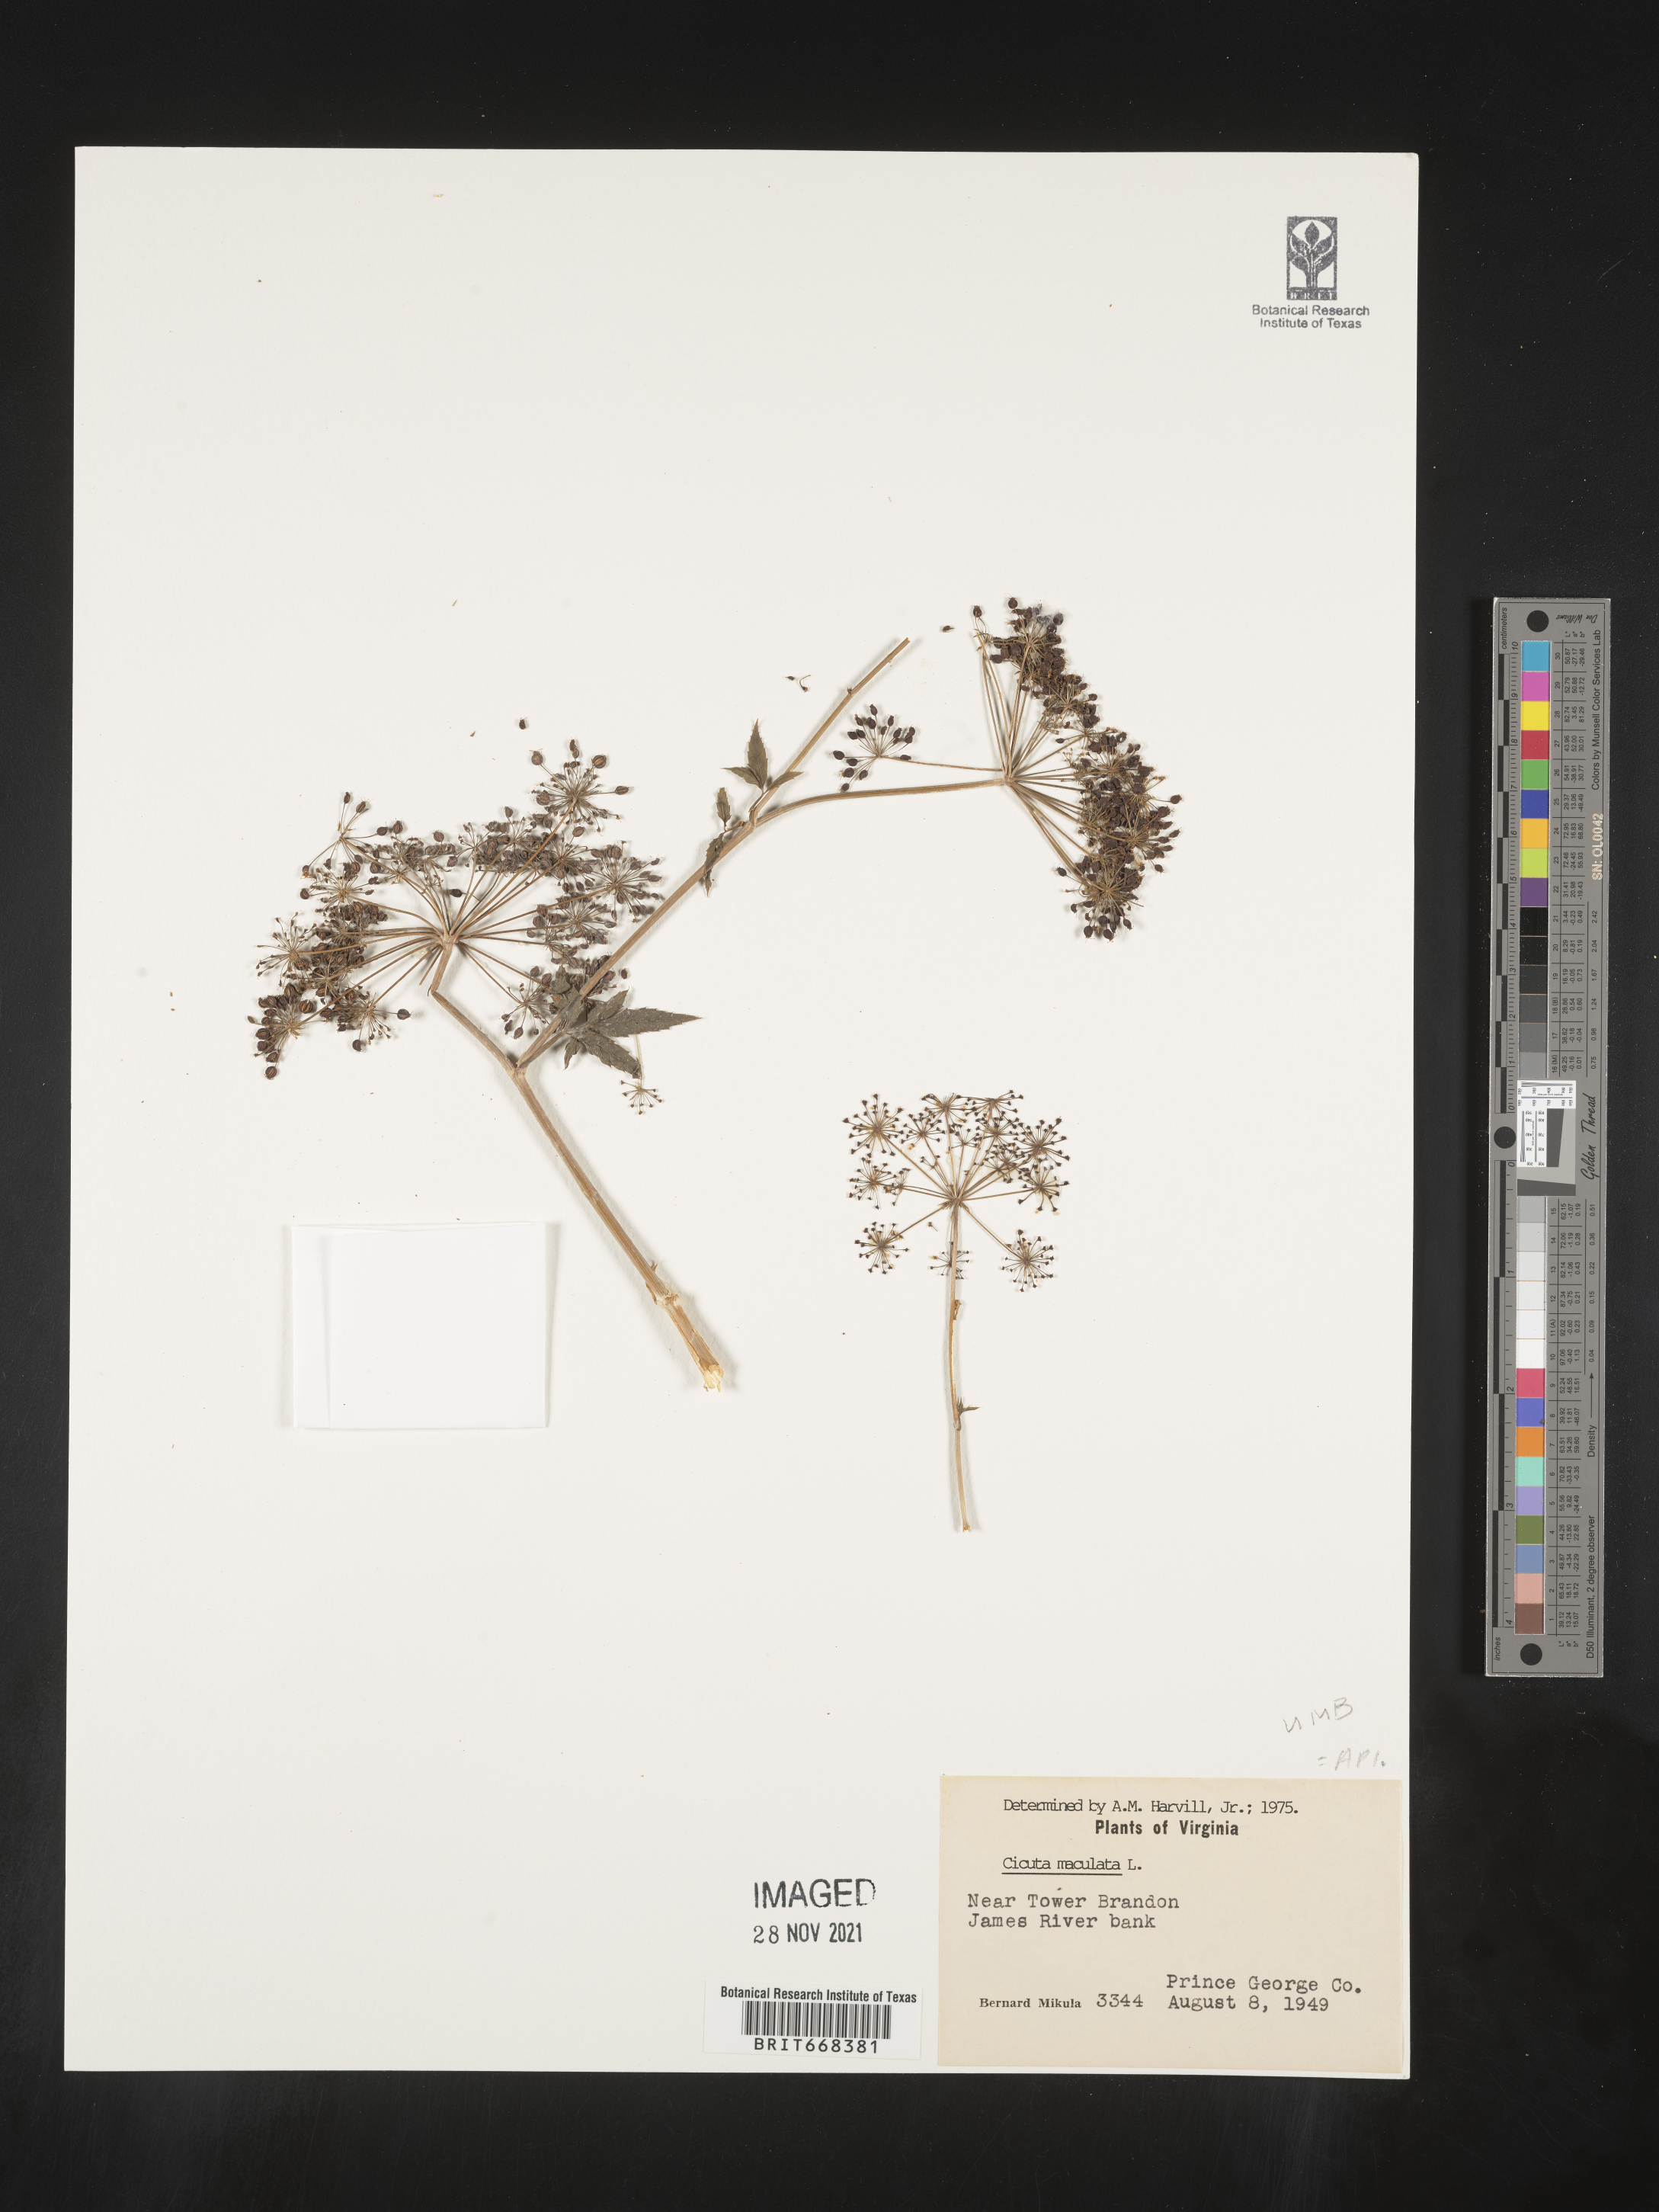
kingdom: Plantae
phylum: Tracheophyta
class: Magnoliopsida
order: Apiales
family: Apiaceae
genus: Cicuta
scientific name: Cicuta maculata
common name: Spotted cowbane
